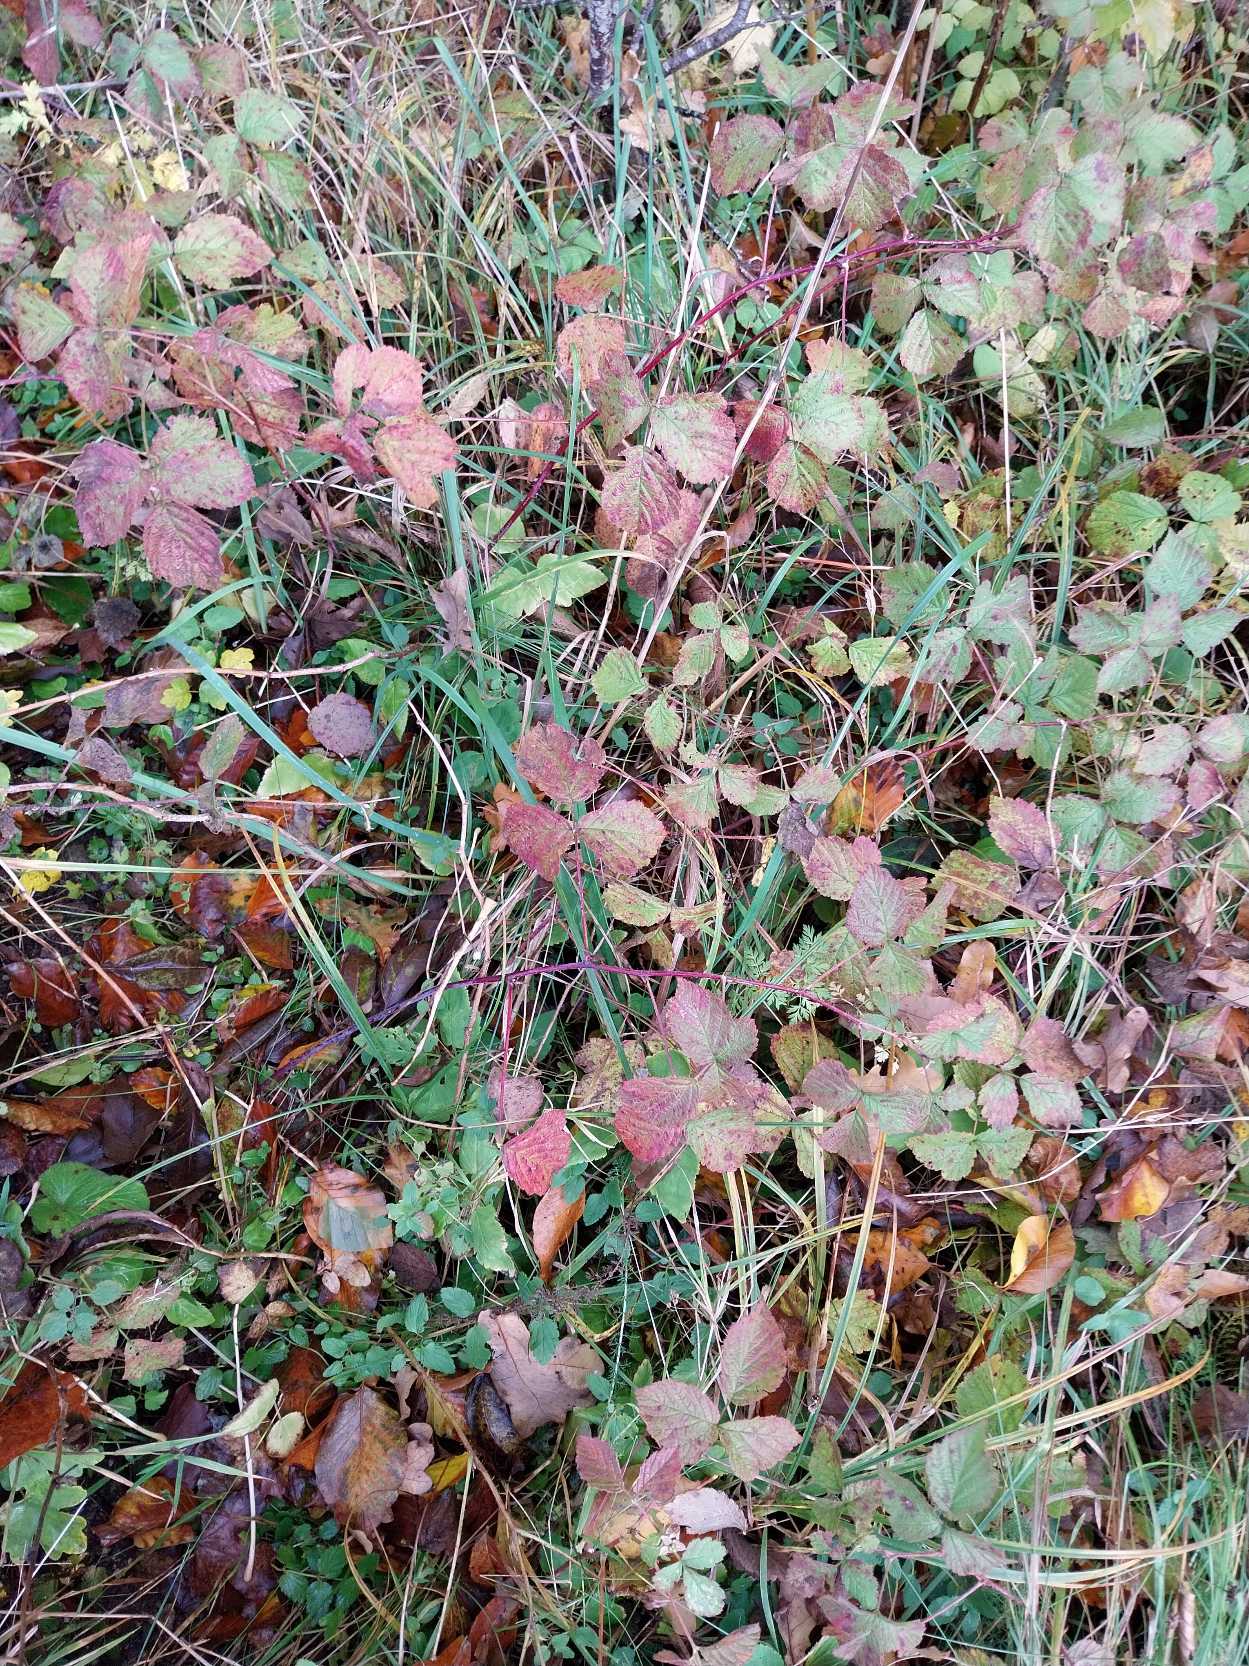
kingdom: Plantae
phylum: Tracheophyta
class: Magnoliopsida
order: Rosales
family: Rosaceae
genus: Rubus
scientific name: Rubus caesius
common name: Korbær
